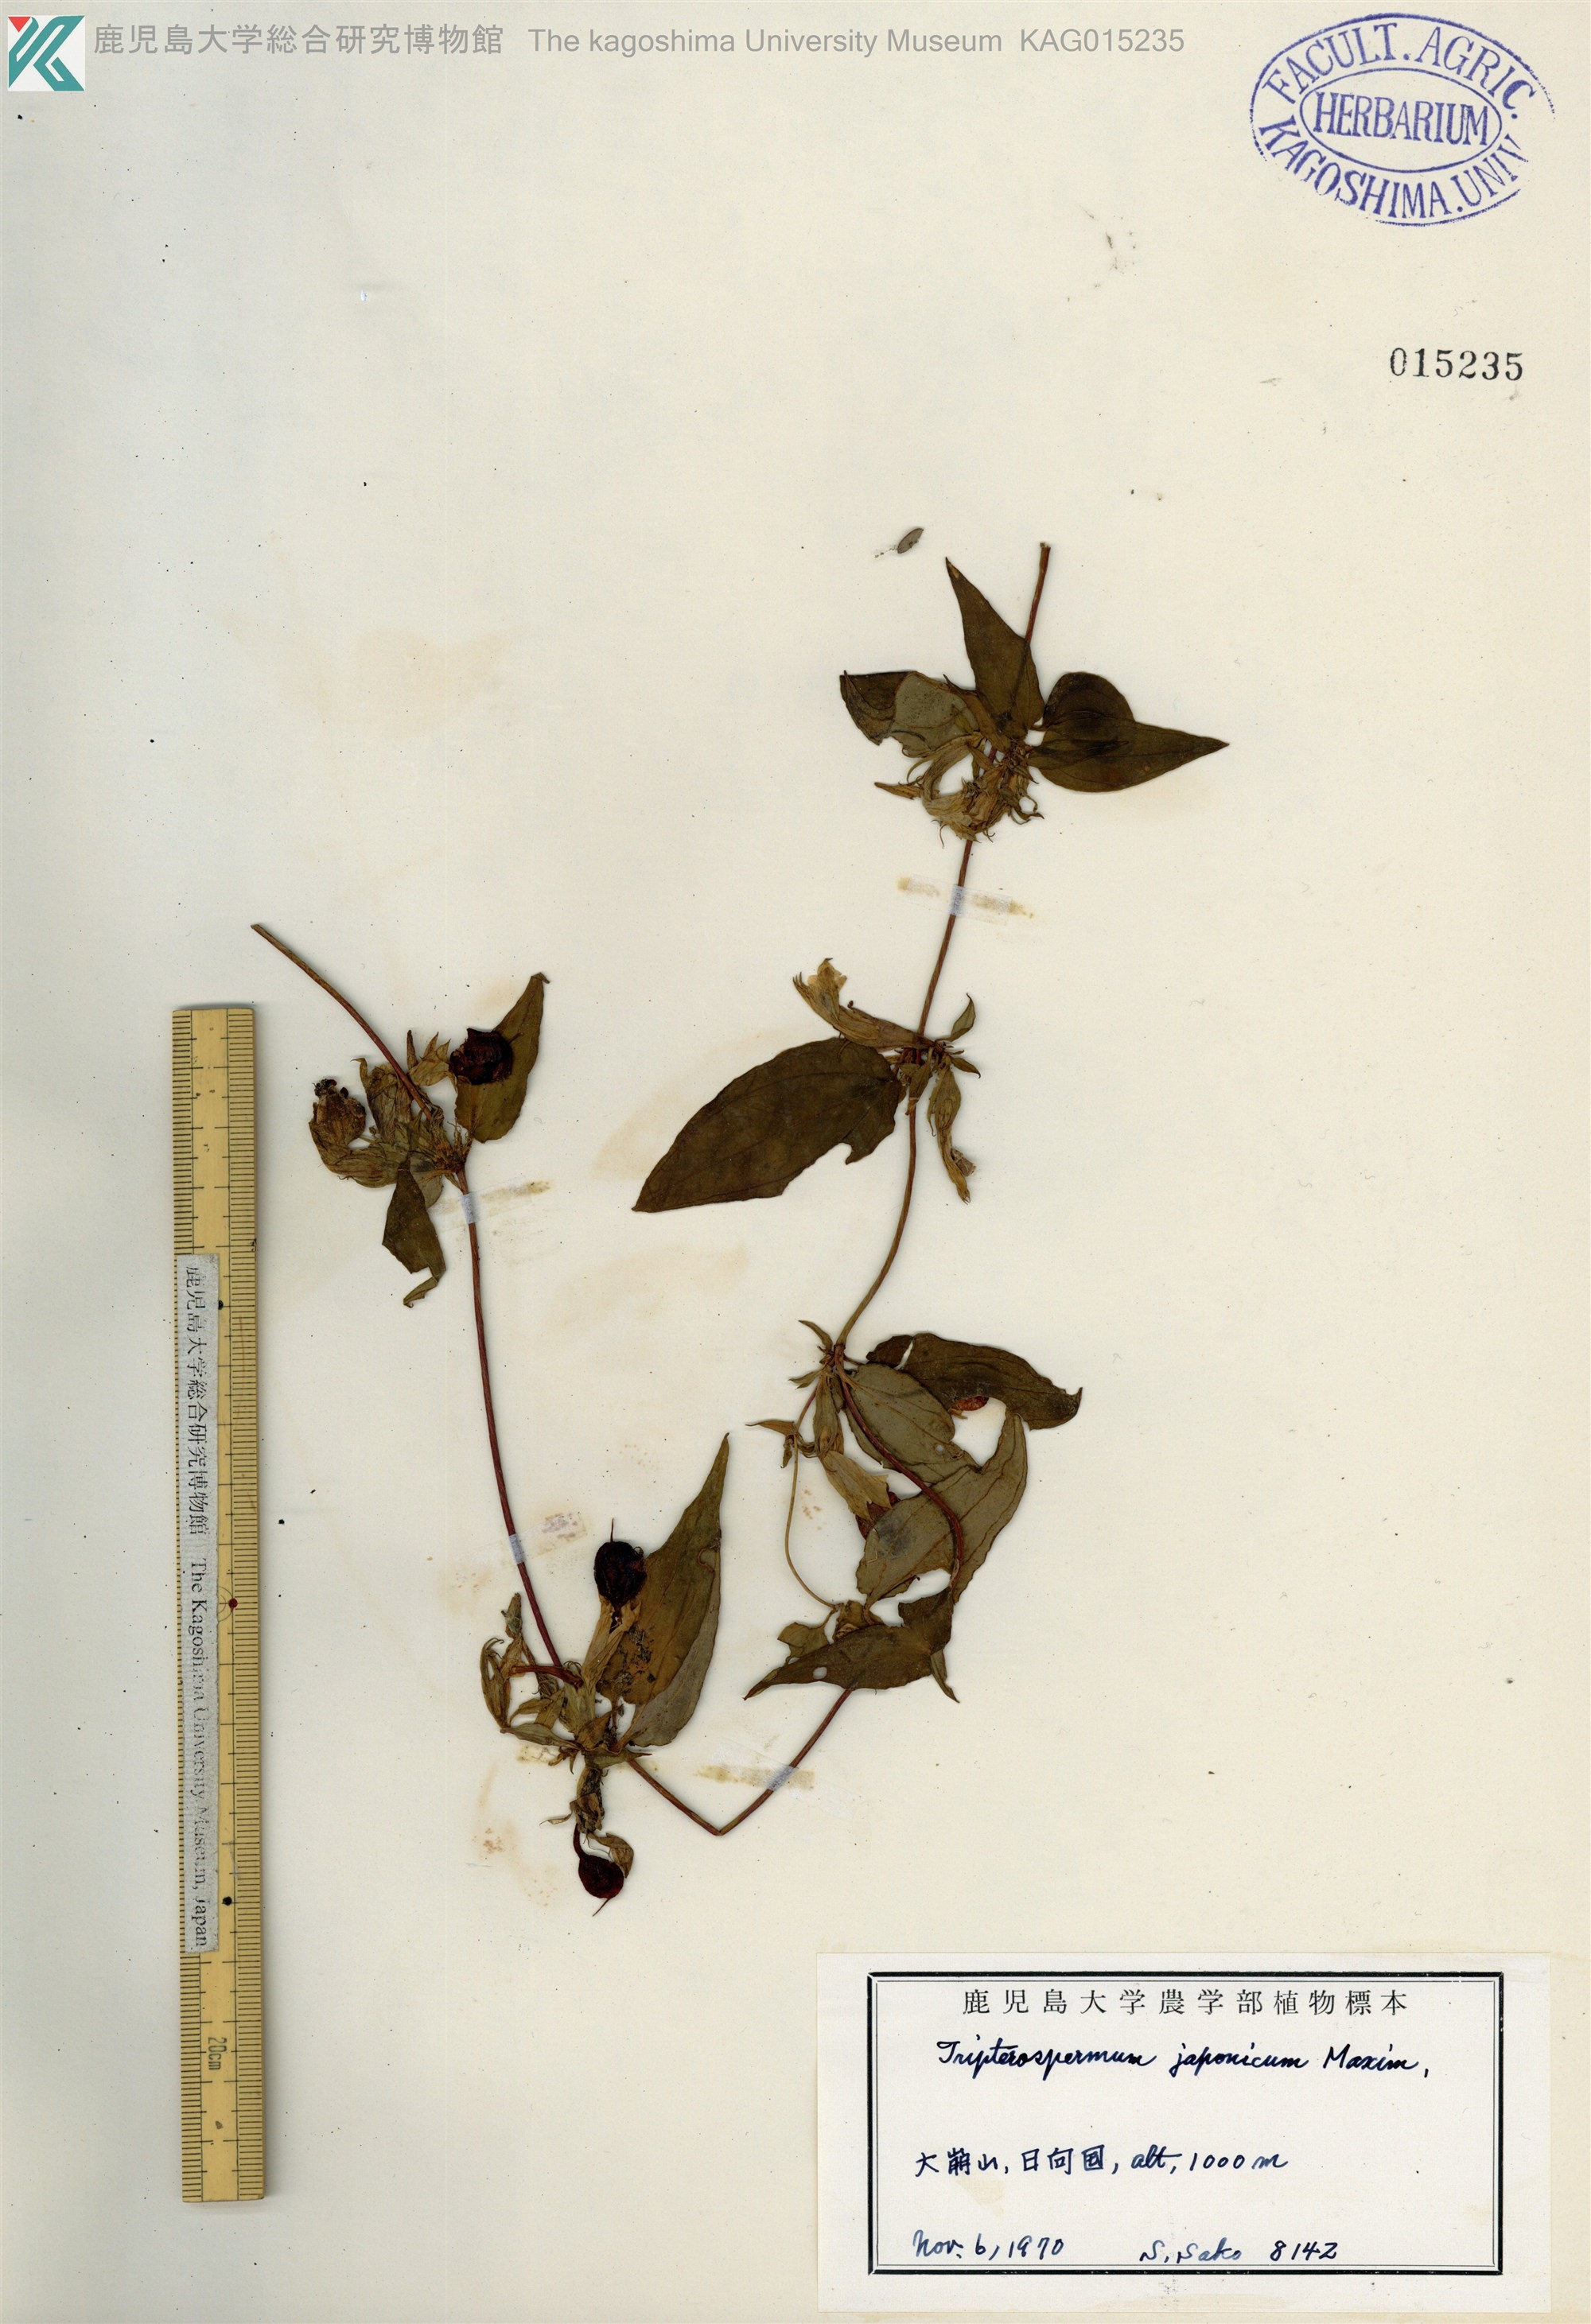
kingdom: Plantae
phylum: Tracheophyta
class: Magnoliopsida
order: Gentianales
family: Gentianaceae
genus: Tripterospermum
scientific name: Tripterospermum trinervium
